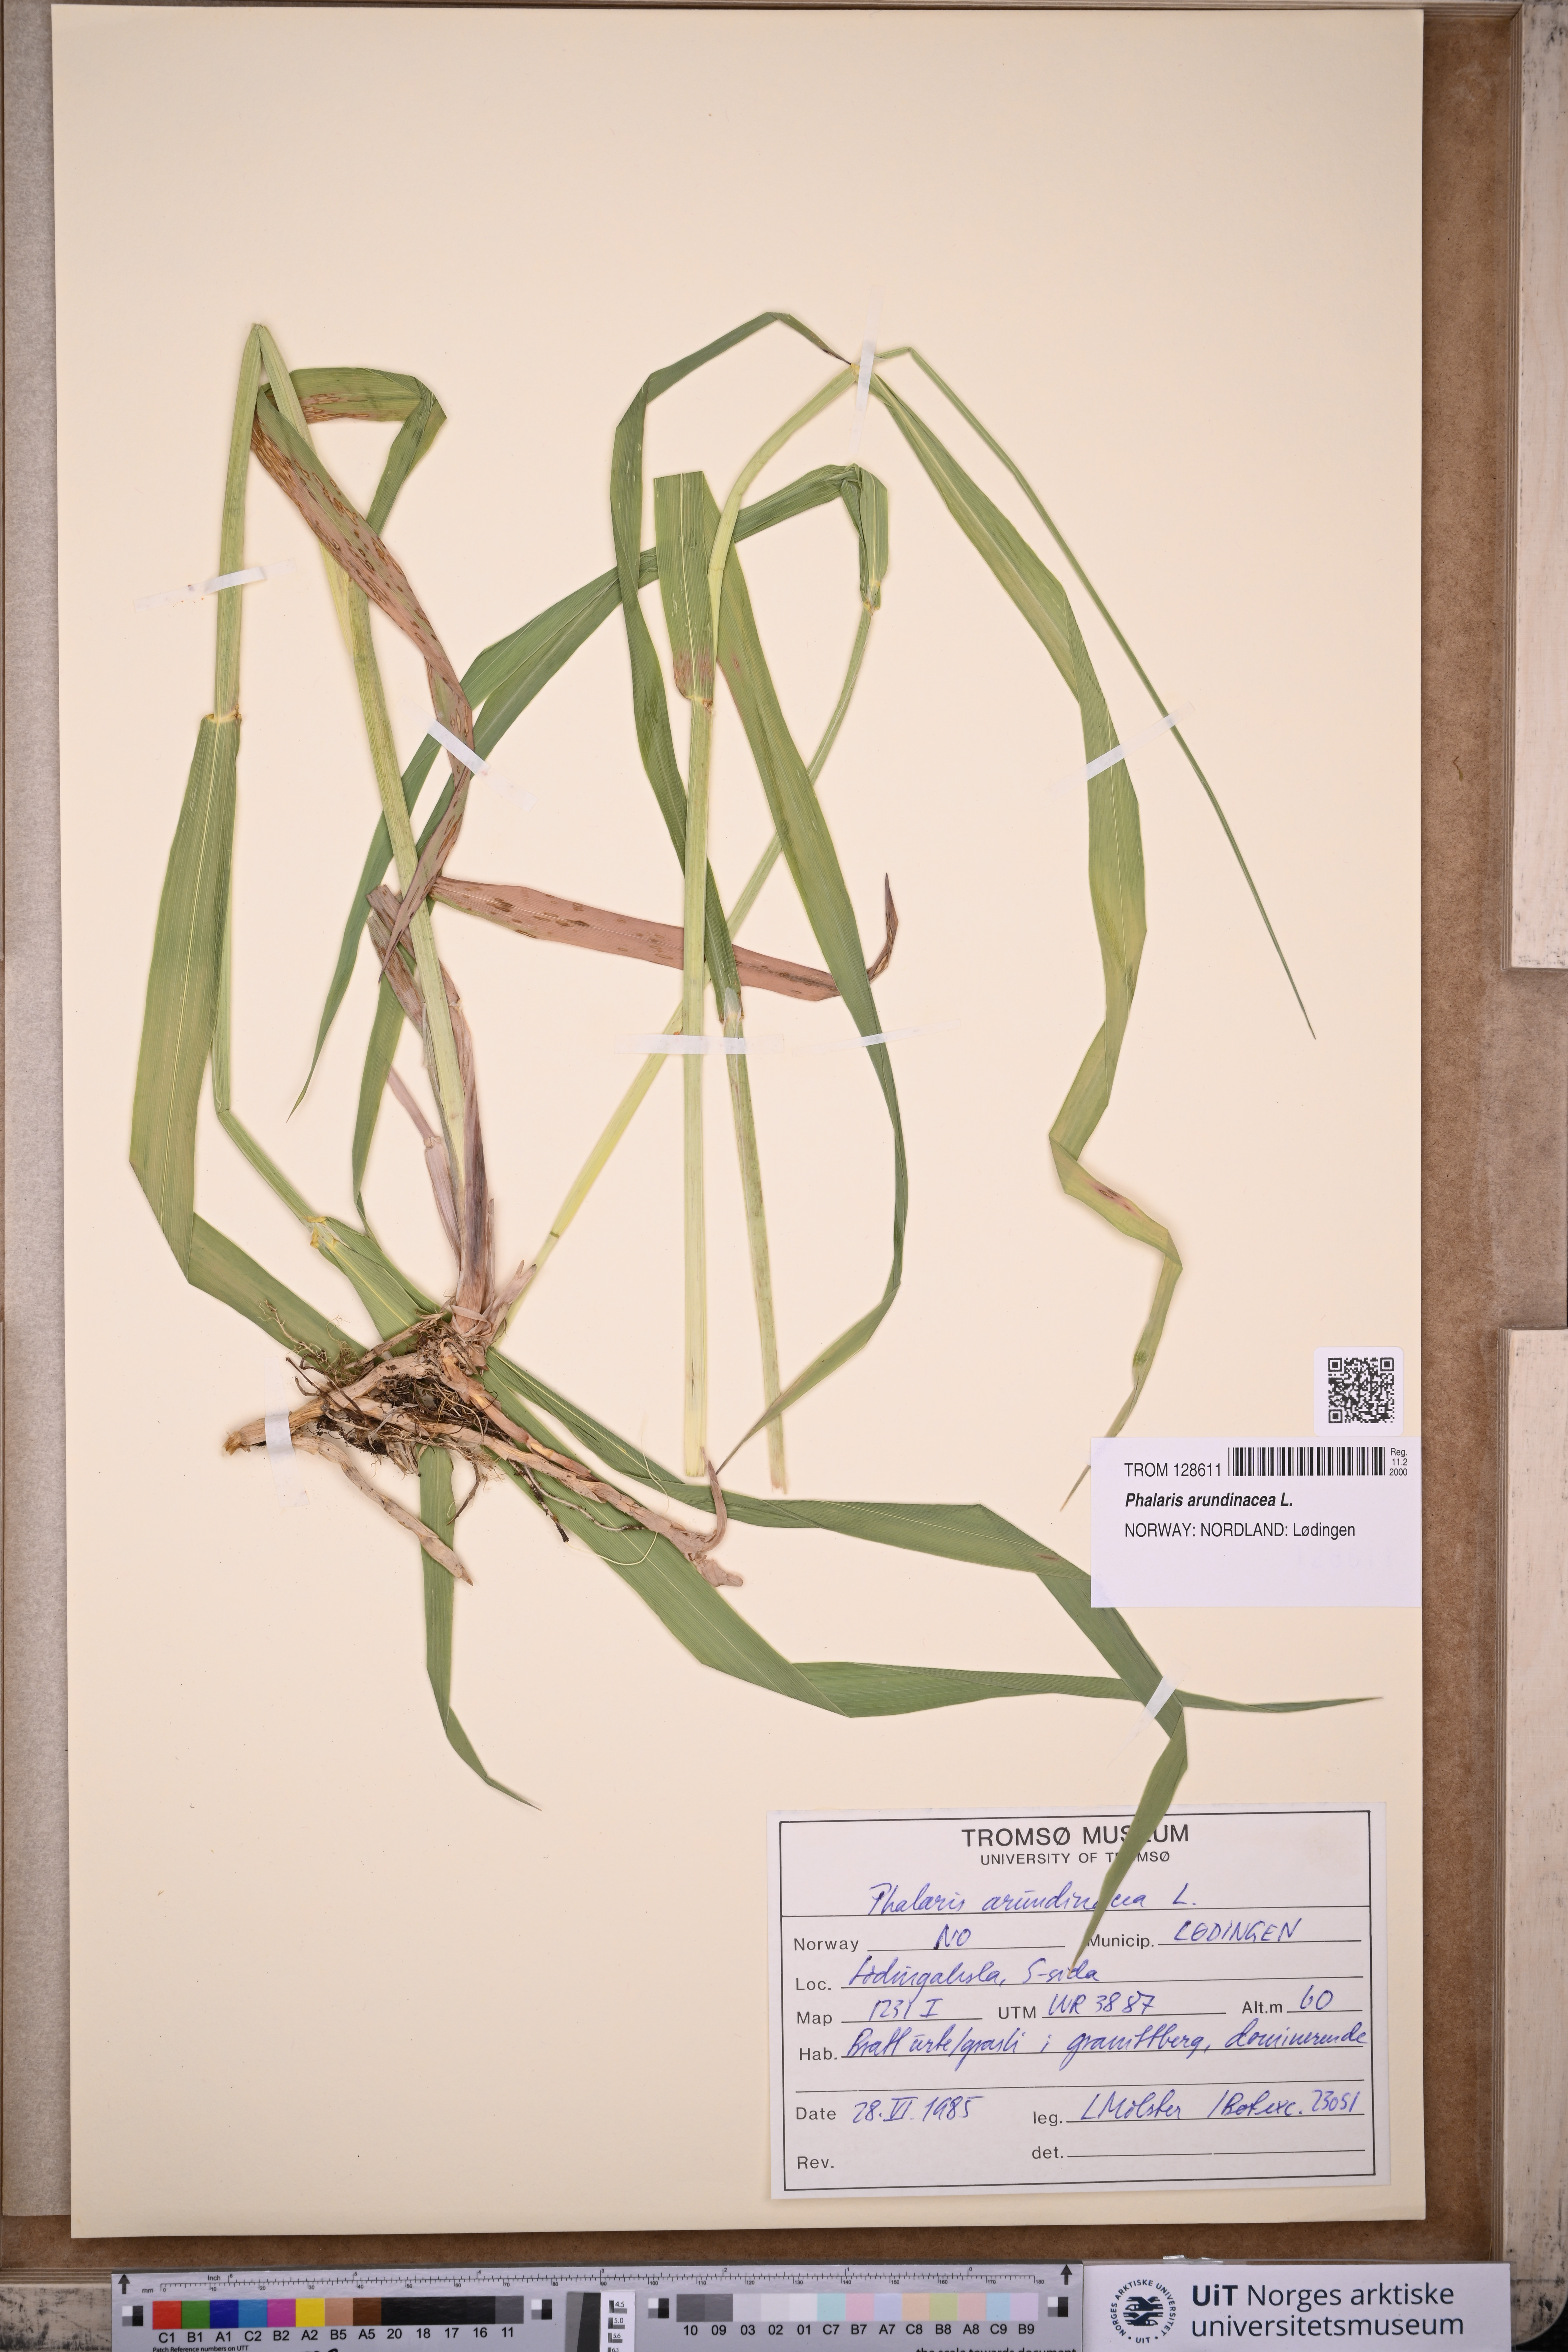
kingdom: Plantae
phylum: Tracheophyta
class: Liliopsida
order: Poales
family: Poaceae
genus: Phalaris
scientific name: Phalaris arundinacea
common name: Reed canary-grass
